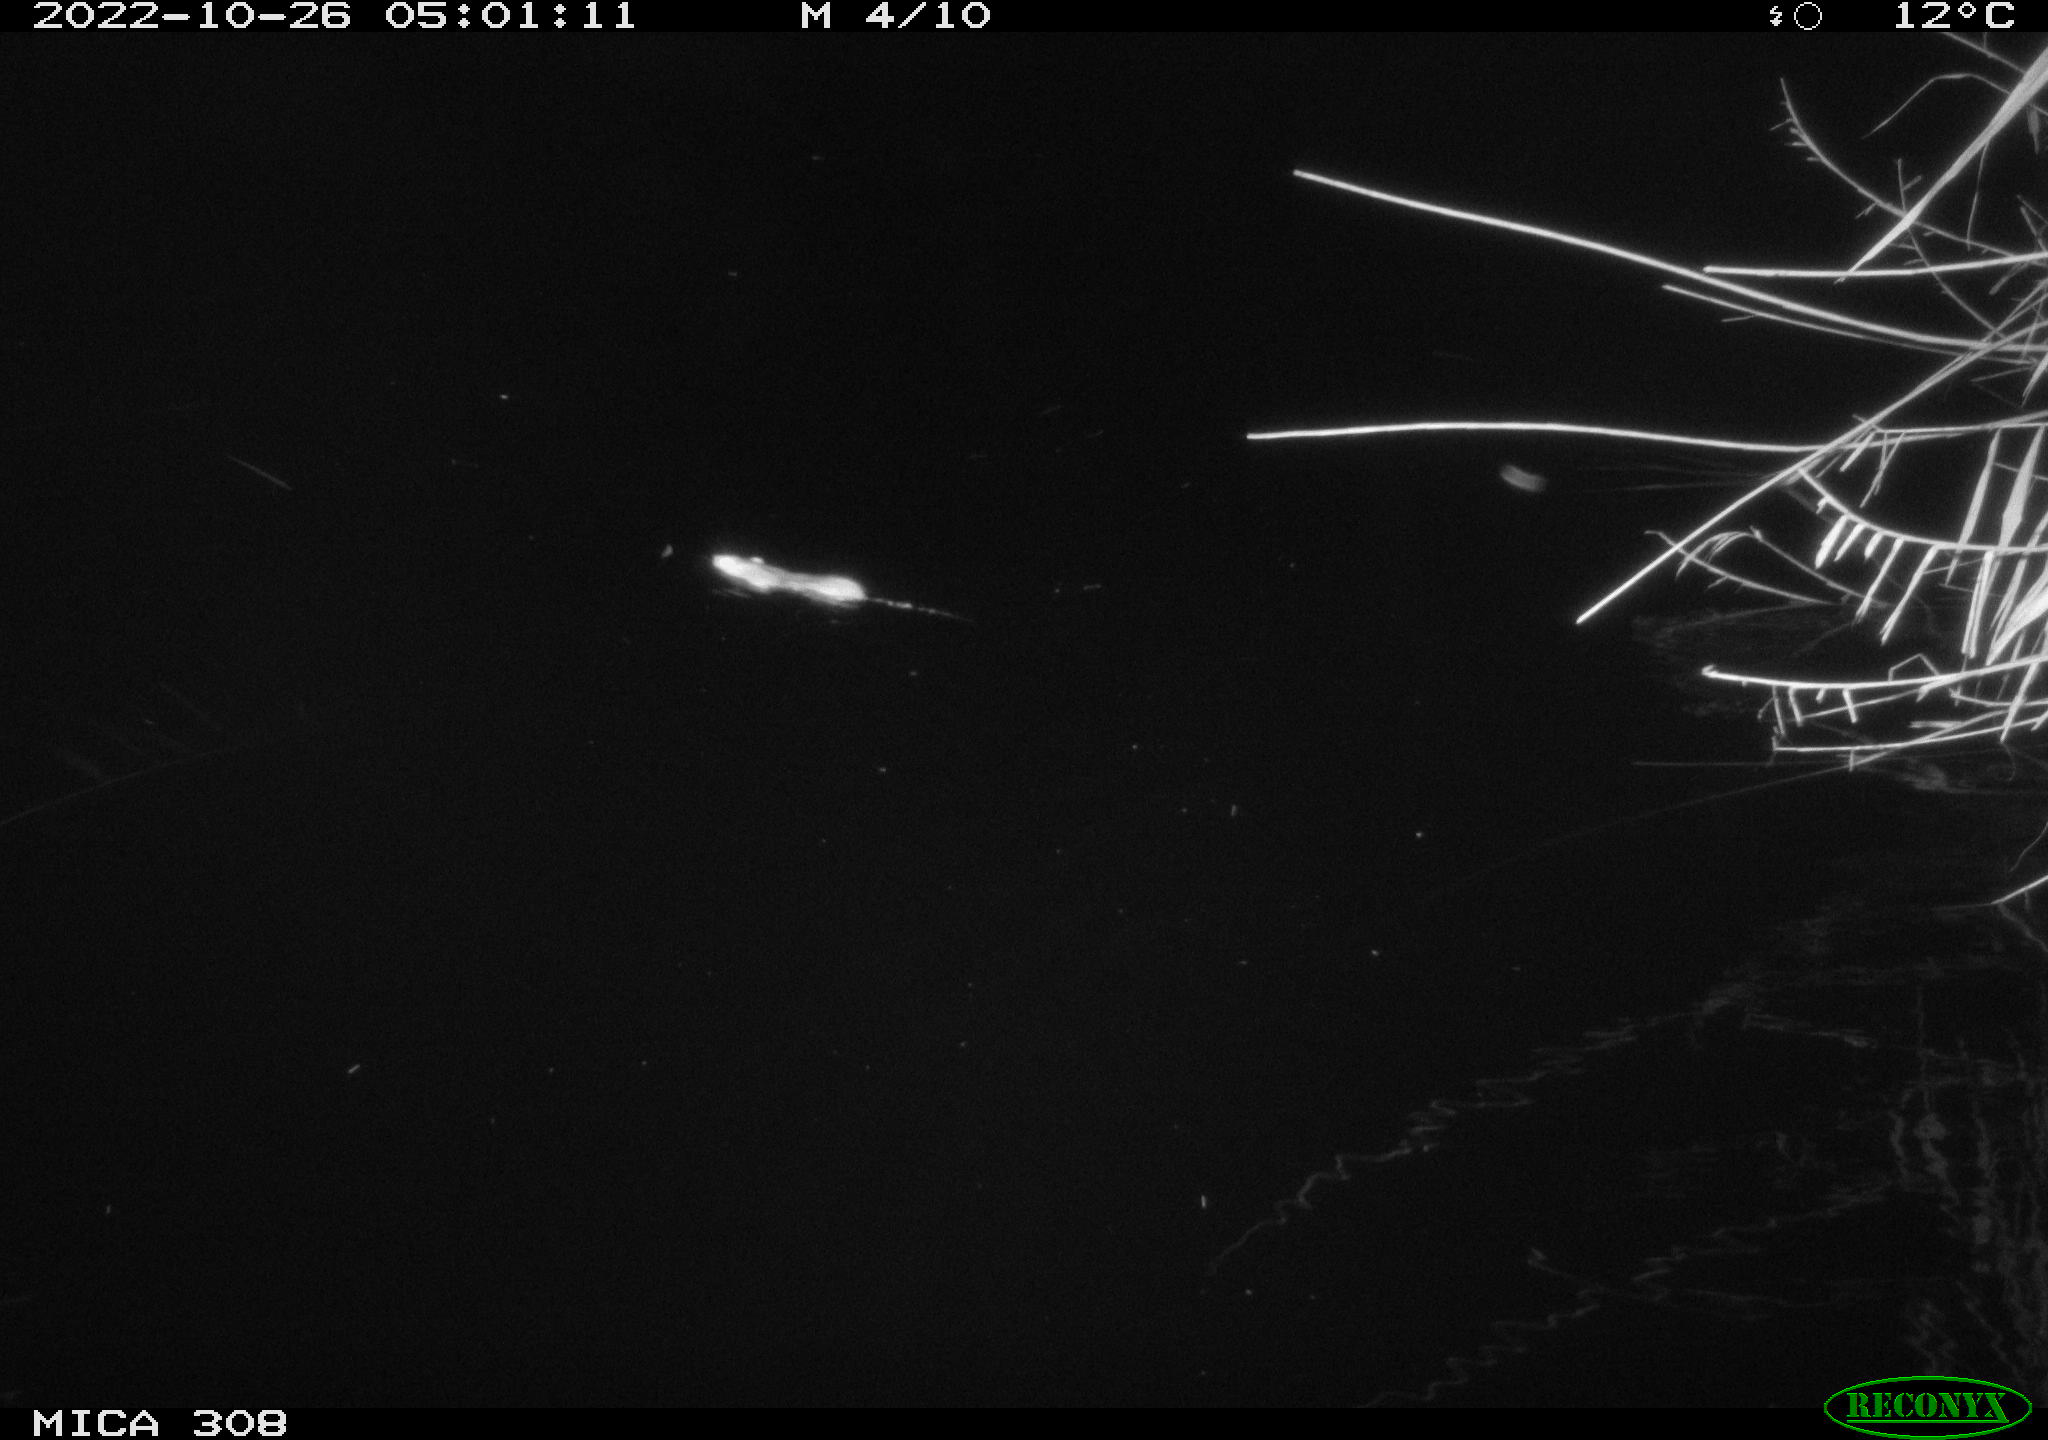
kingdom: Animalia
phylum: Chordata
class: Mammalia
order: Rodentia
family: Muridae
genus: Rattus
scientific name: Rattus norvegicus
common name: Brown rat
